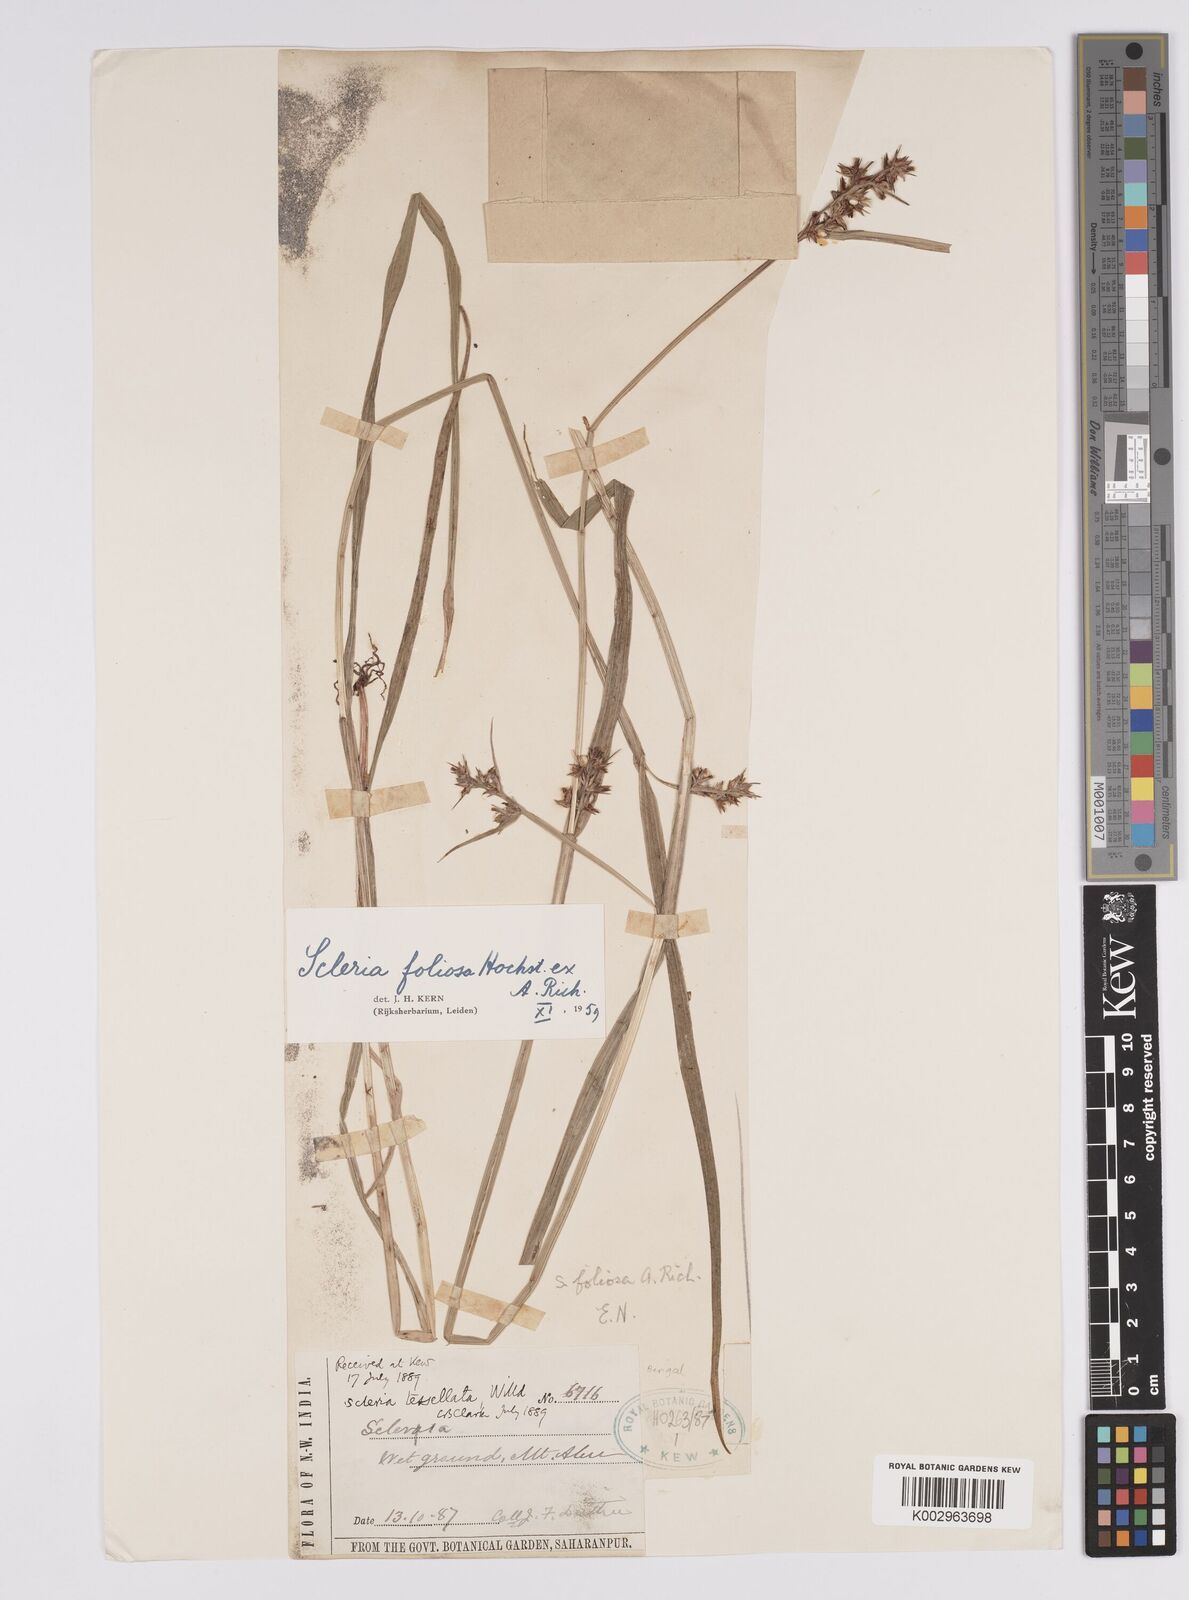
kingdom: Plantae
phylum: Tracheophyta
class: Liliopsida
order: Poales
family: Cyperaceae
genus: Scleria
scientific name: Scleria foliosa
